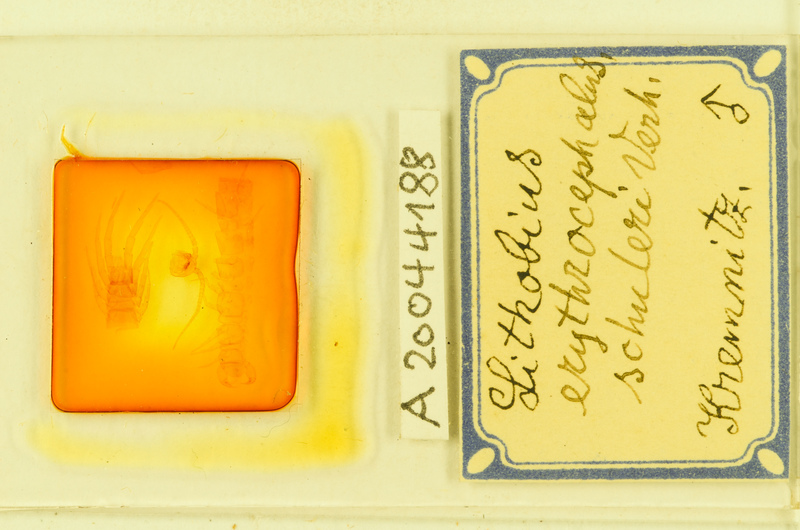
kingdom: Animalia
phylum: Arthropoda
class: Chilopoda
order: Lithobiomorpha
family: Lithobiidae
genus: Lithobius
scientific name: Lithobius erythrocephalus
